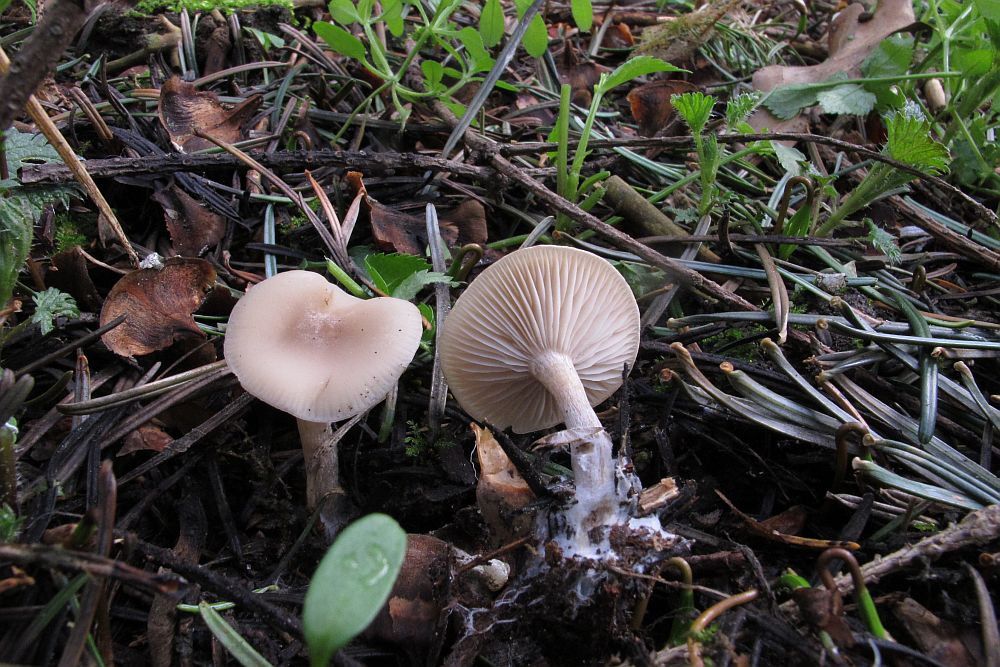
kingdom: Fungi
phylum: Basidiomycota
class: Agaricomycetes
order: Agaricales
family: Tricholomataceae
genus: Clitocybe
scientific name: Clitocybe fragrans
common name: vellugtende tragthat
